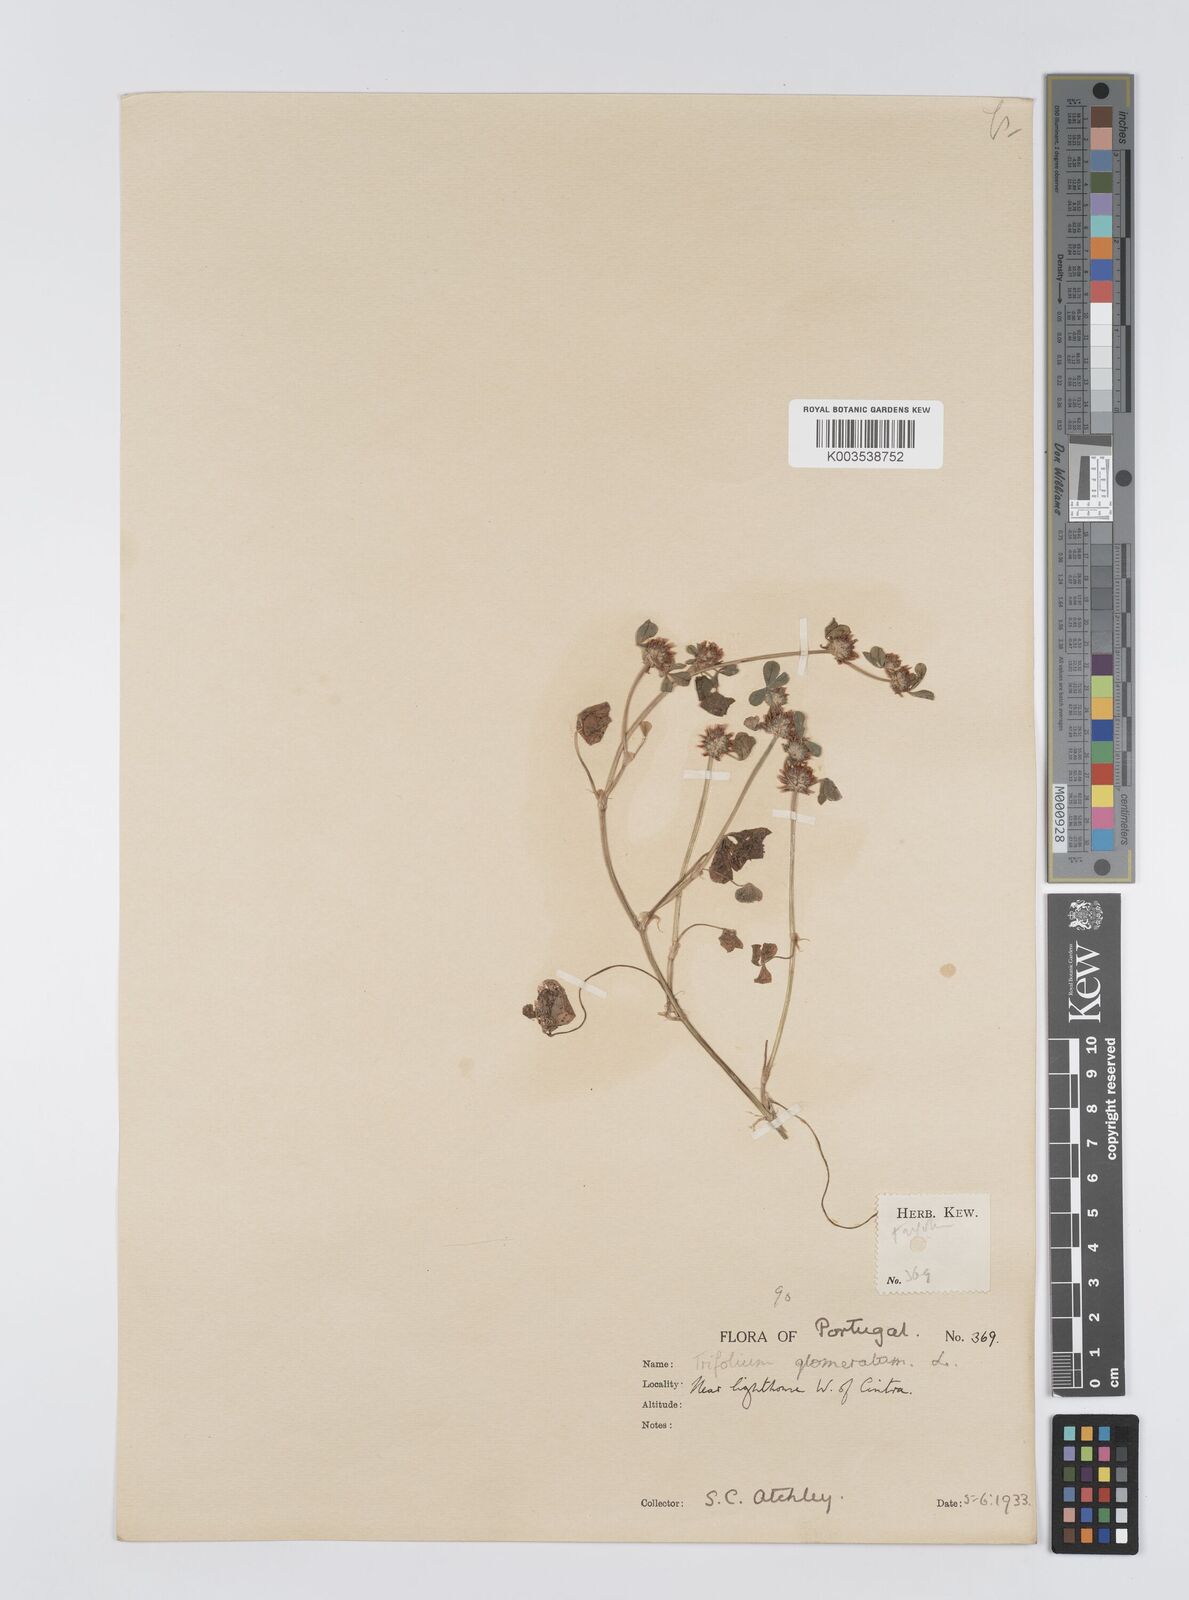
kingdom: Plantae
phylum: Tracheophyta
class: Magnoliopsida
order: Fabales
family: Fabaceae
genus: Trifolium
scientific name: Trifolium glomeratum
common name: Clustered clover
